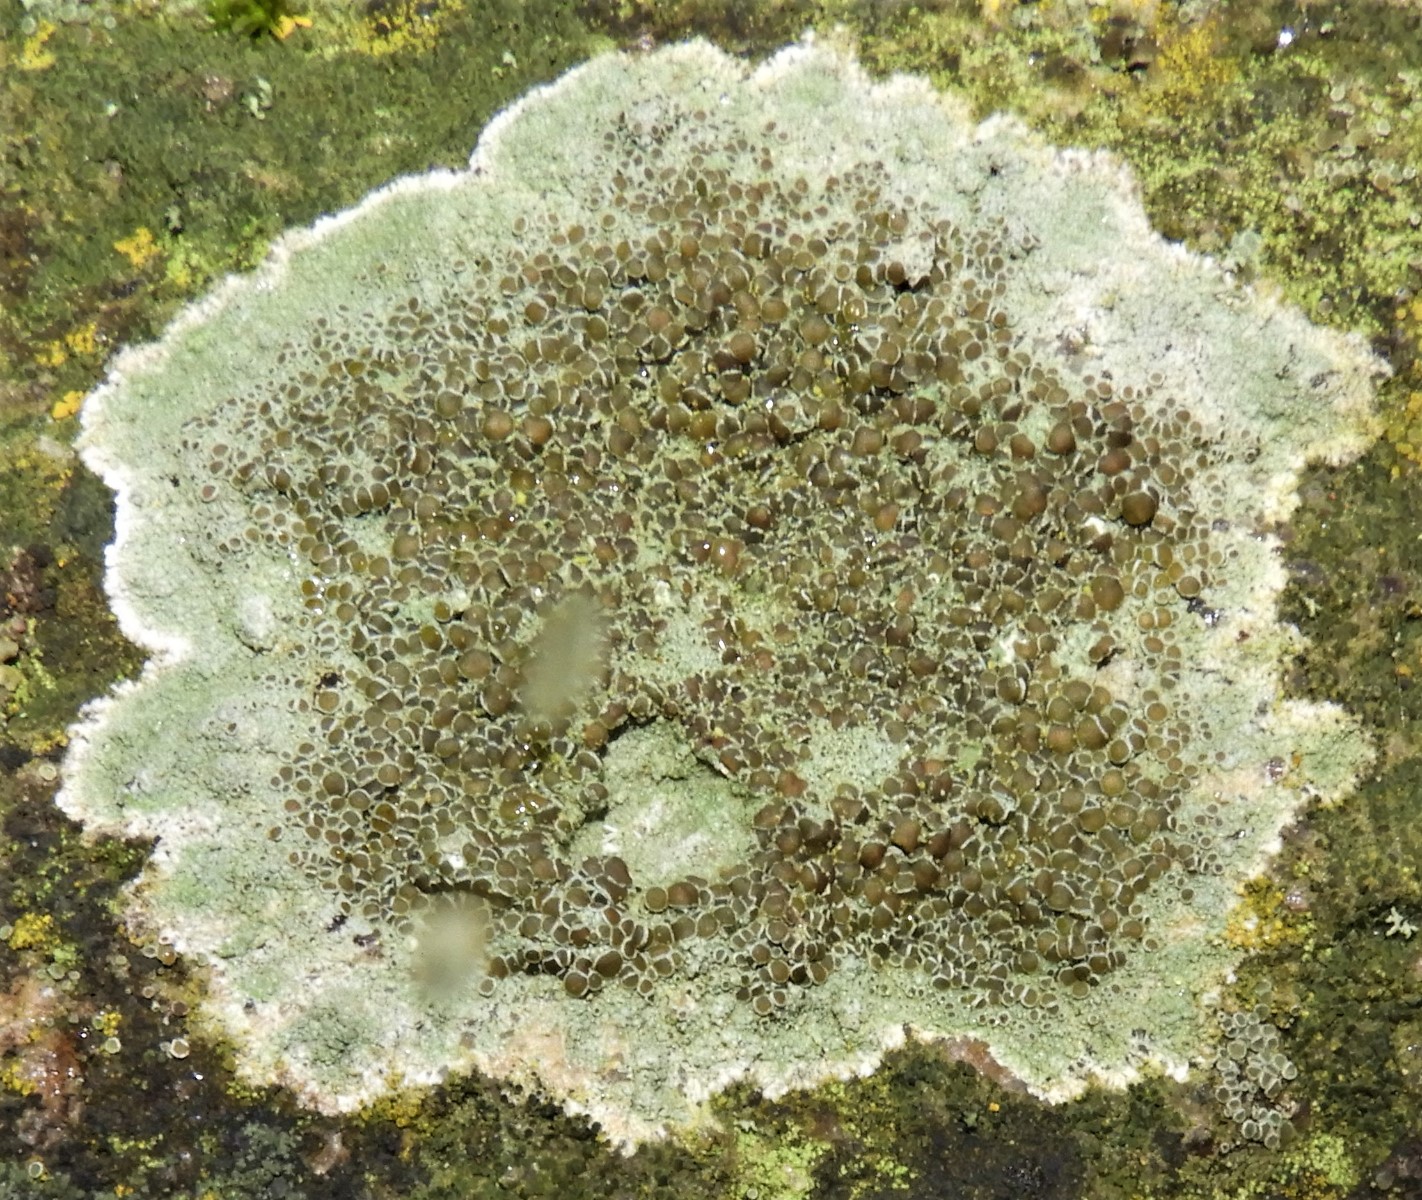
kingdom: Fungi
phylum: Ascomycota
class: Lecanoromycetes
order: Lecanorales
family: Lecanoraceae
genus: Lecanora
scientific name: Lecanora campestris
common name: mur-kantskivelav
